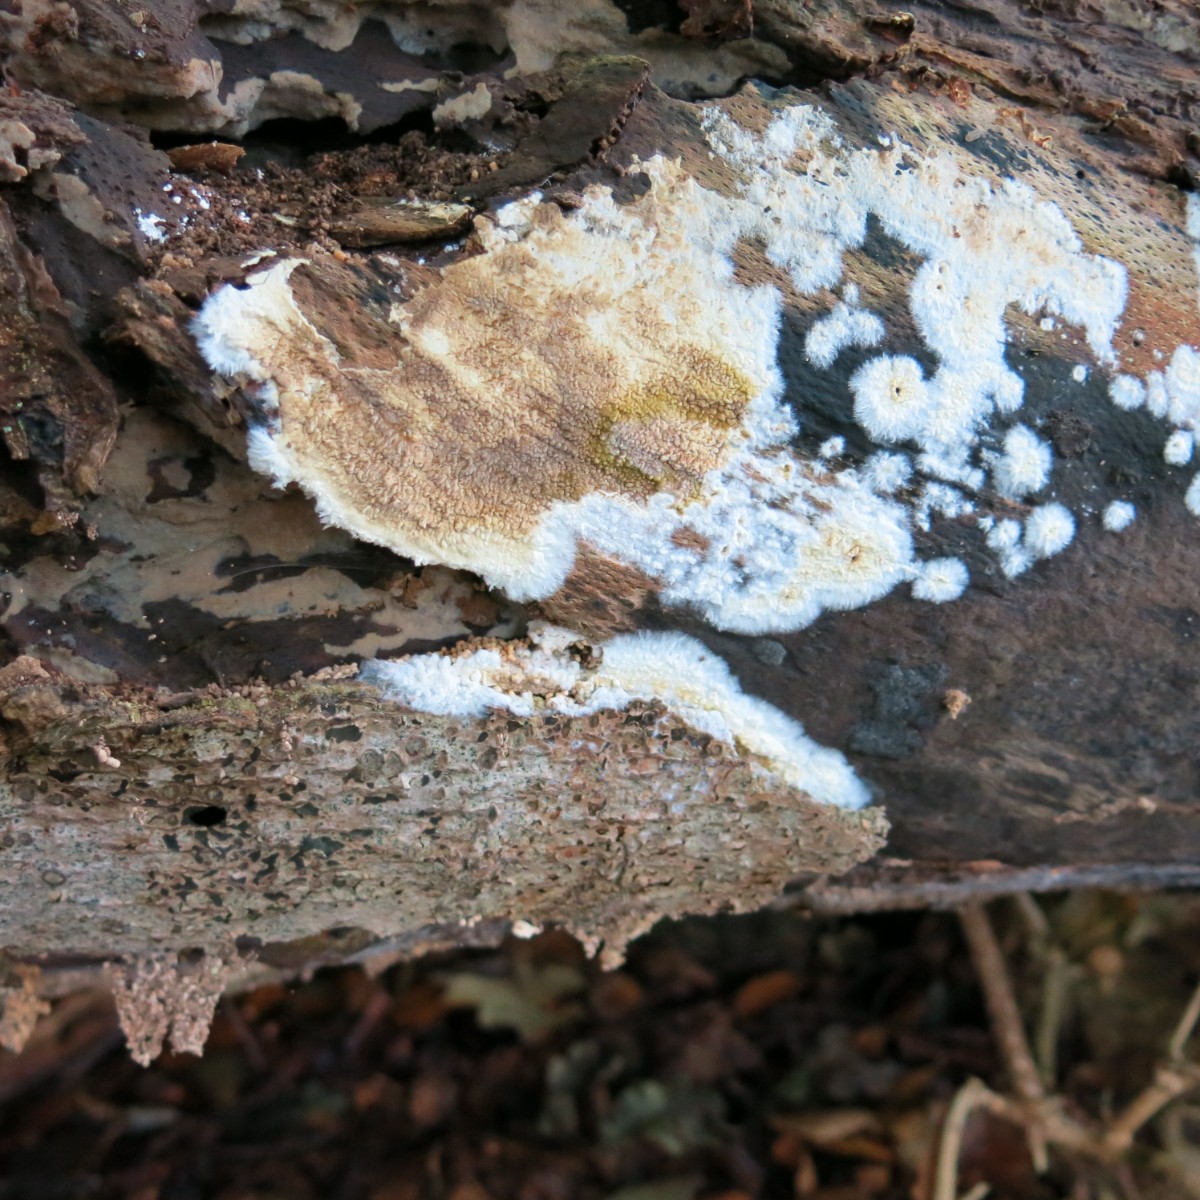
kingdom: Fungi
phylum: Basidiomycota
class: Agaricomycetes
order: Boletales
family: Coniophoraceae
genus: Coniophora
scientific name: Coniophora puteana
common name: gul tømmersvamp
